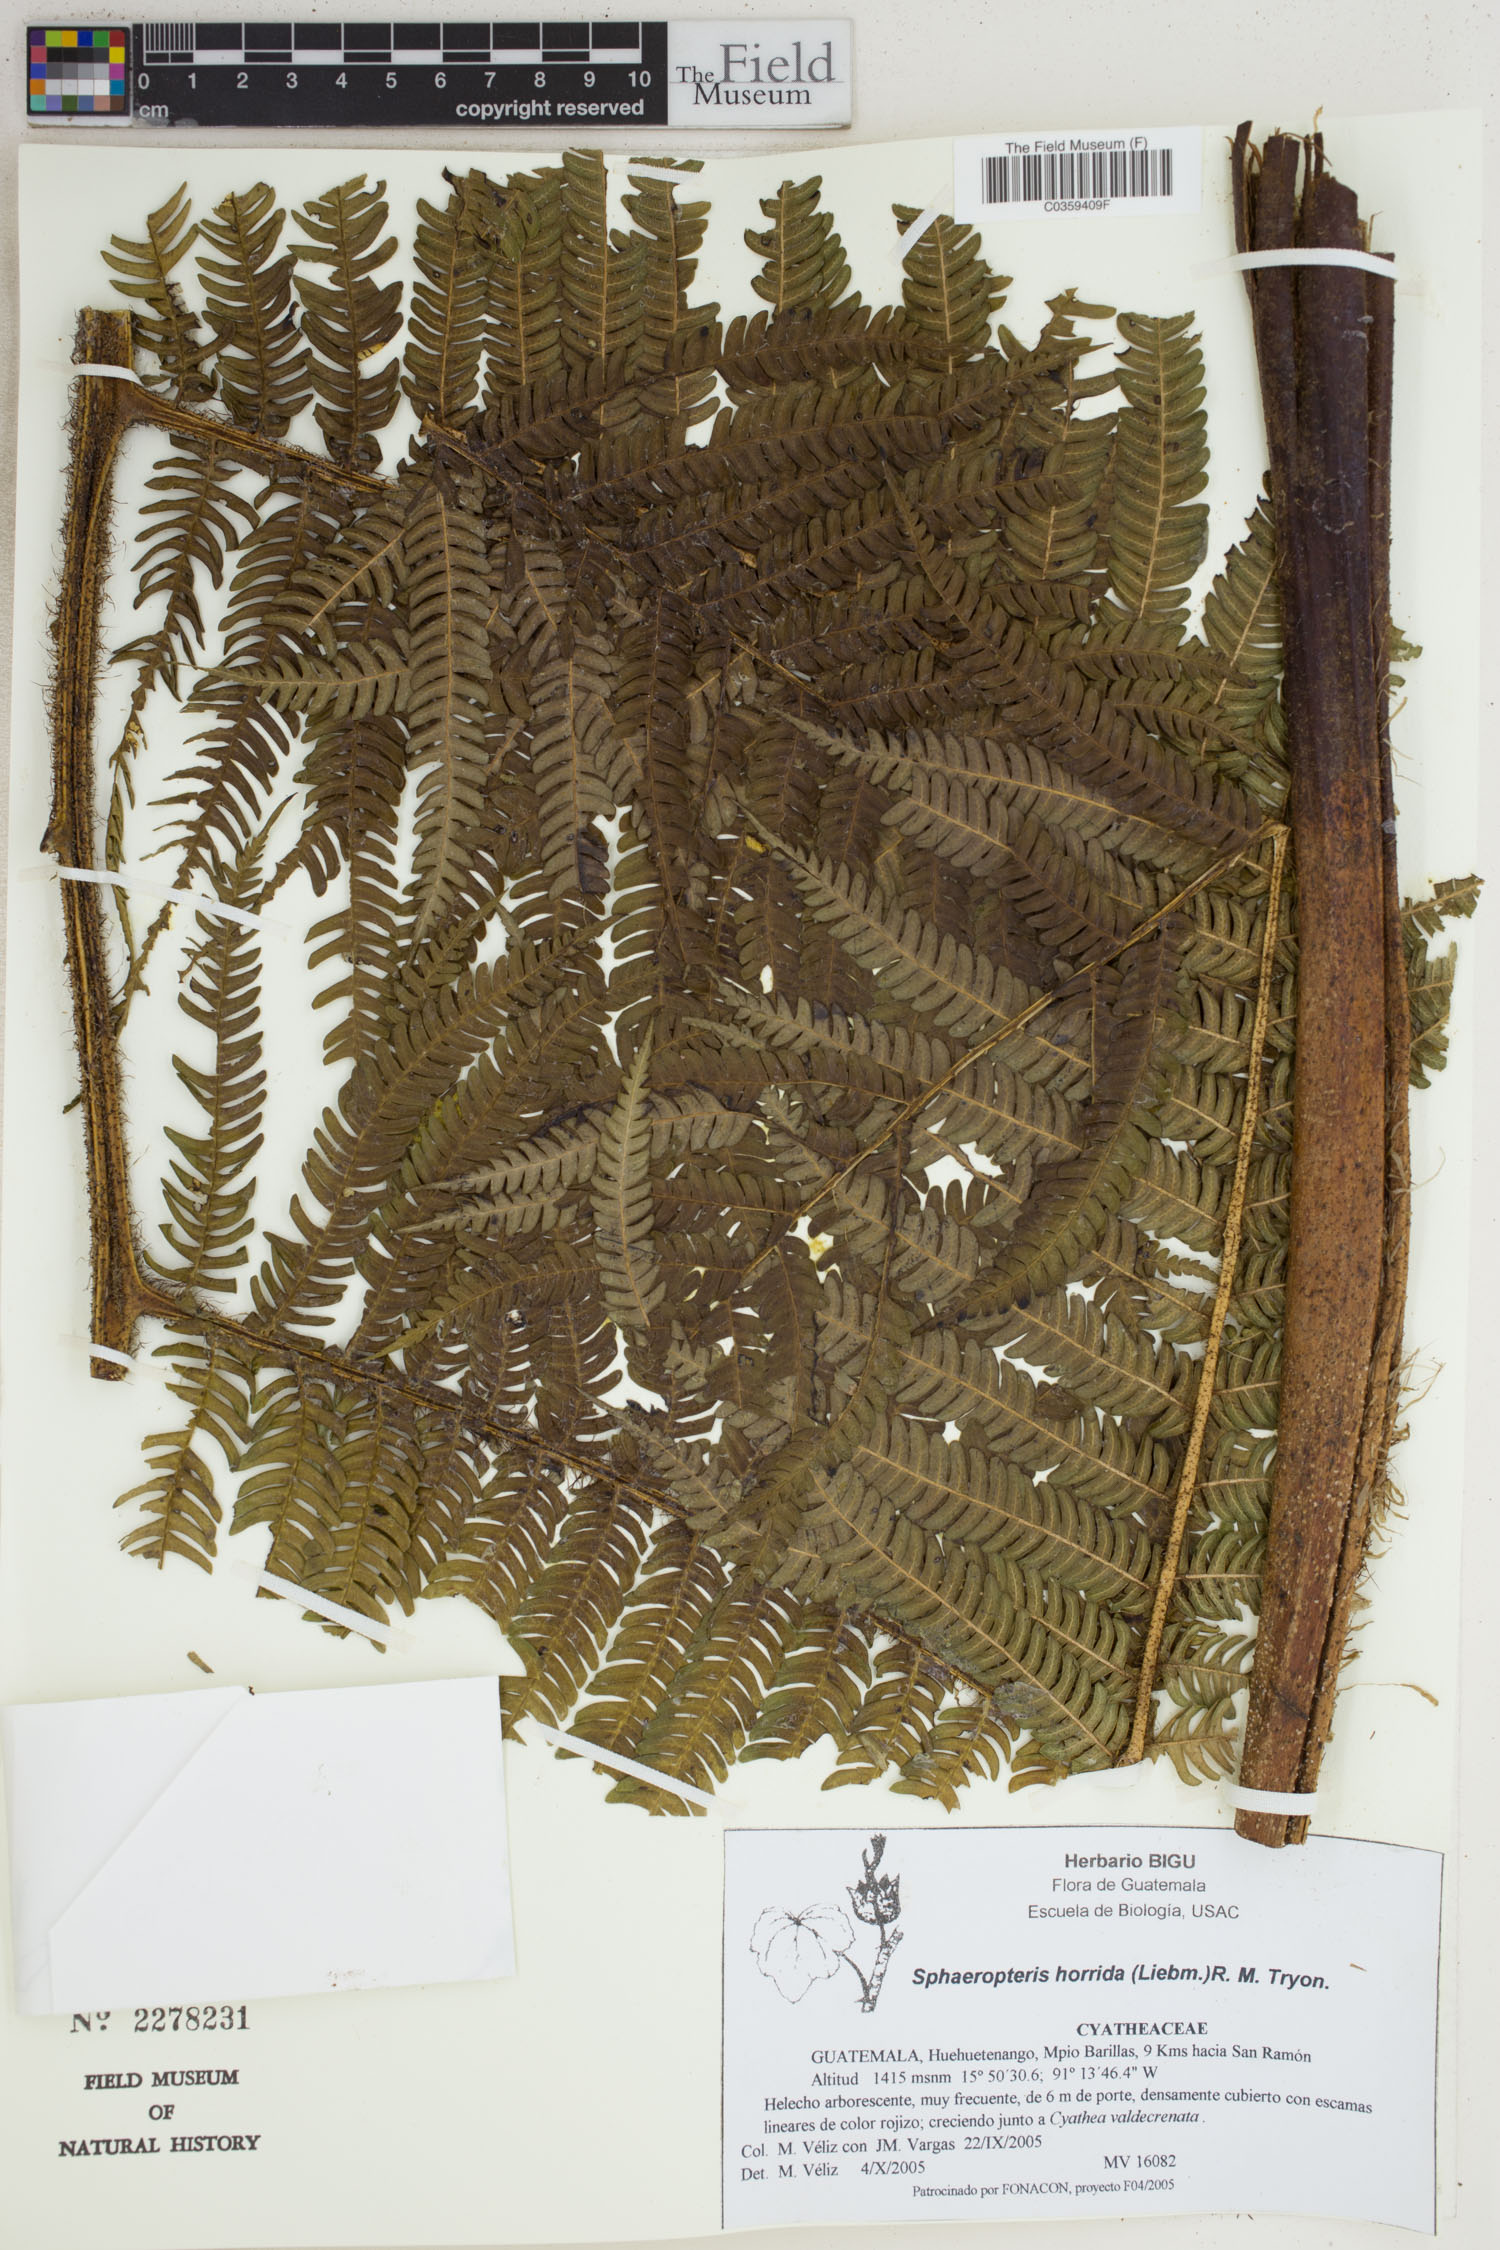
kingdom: Plantae
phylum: Tracheophyta
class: Polypodiopsida
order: Cyatheales
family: Cyatheaceae
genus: Sphaeropteris
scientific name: Sphaeropteris horrida
